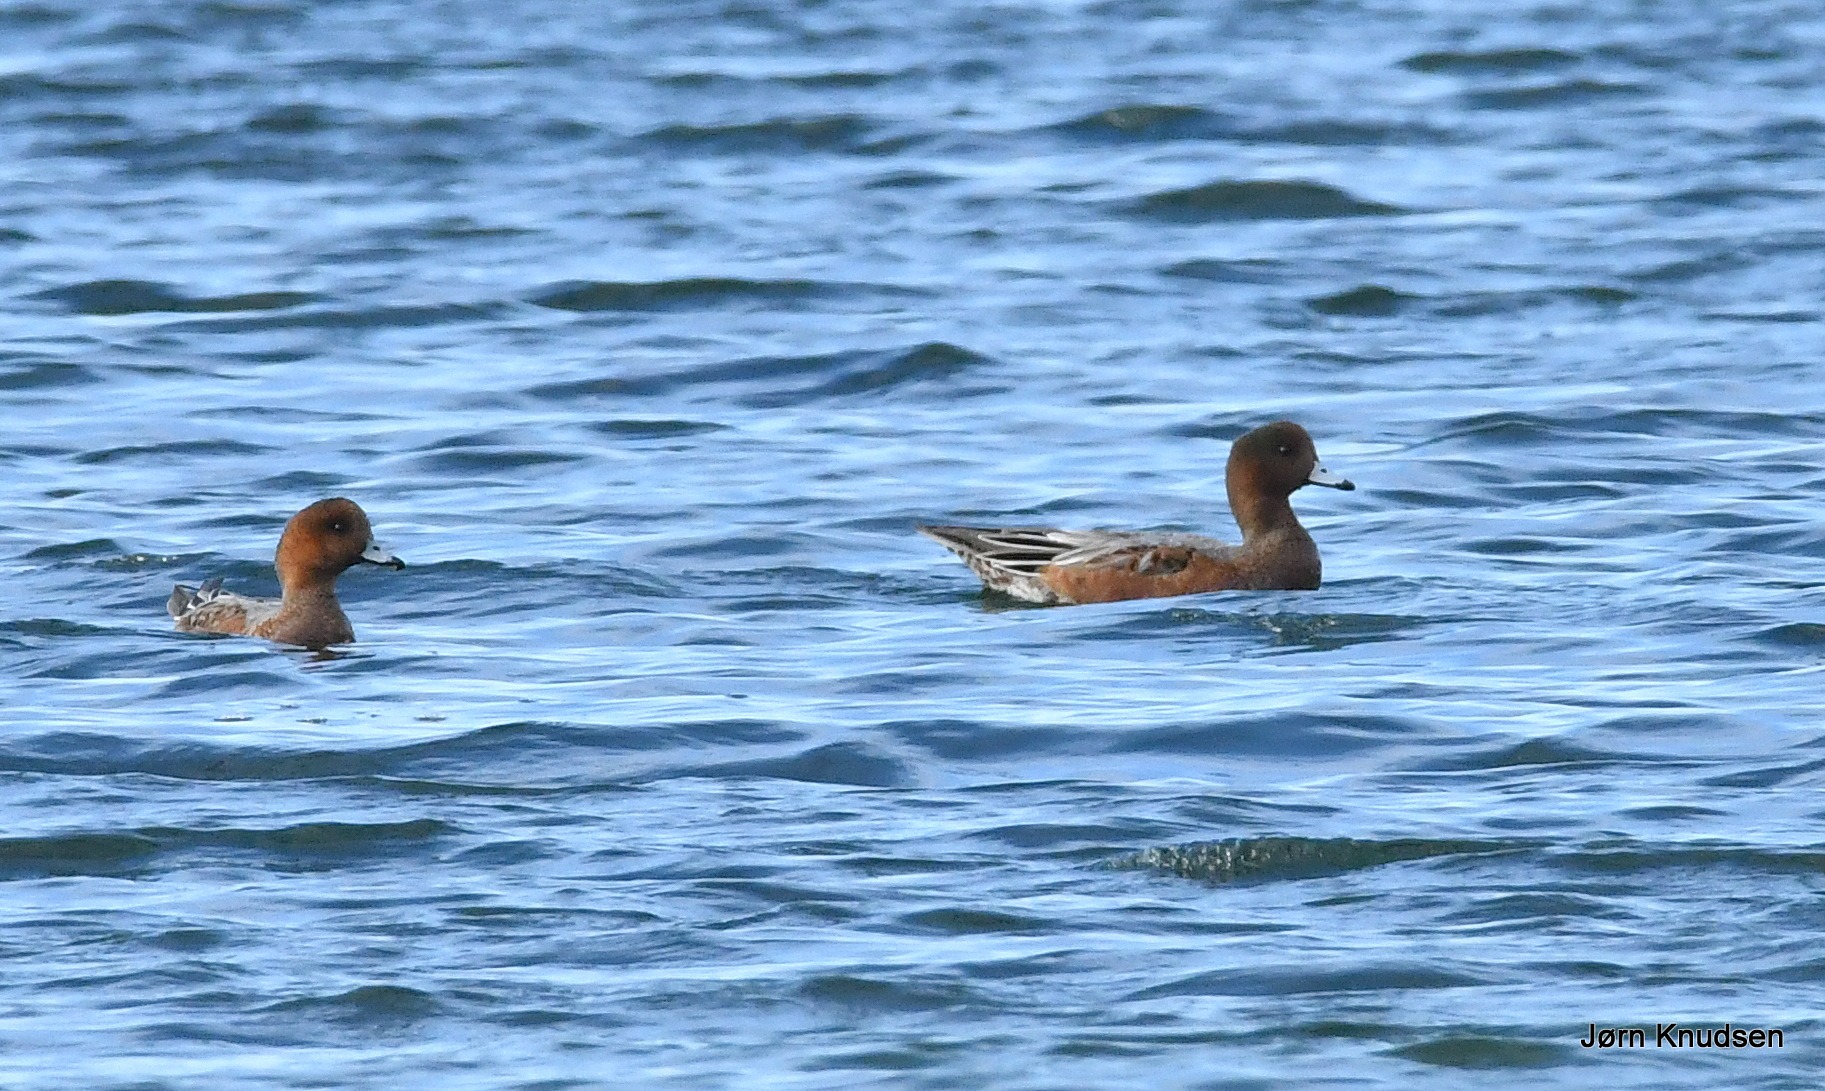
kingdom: Animalia
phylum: Chordata
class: Aves
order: Anseriformes
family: Anatidae
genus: Mareca
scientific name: Mareca penelope
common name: Pibeand
